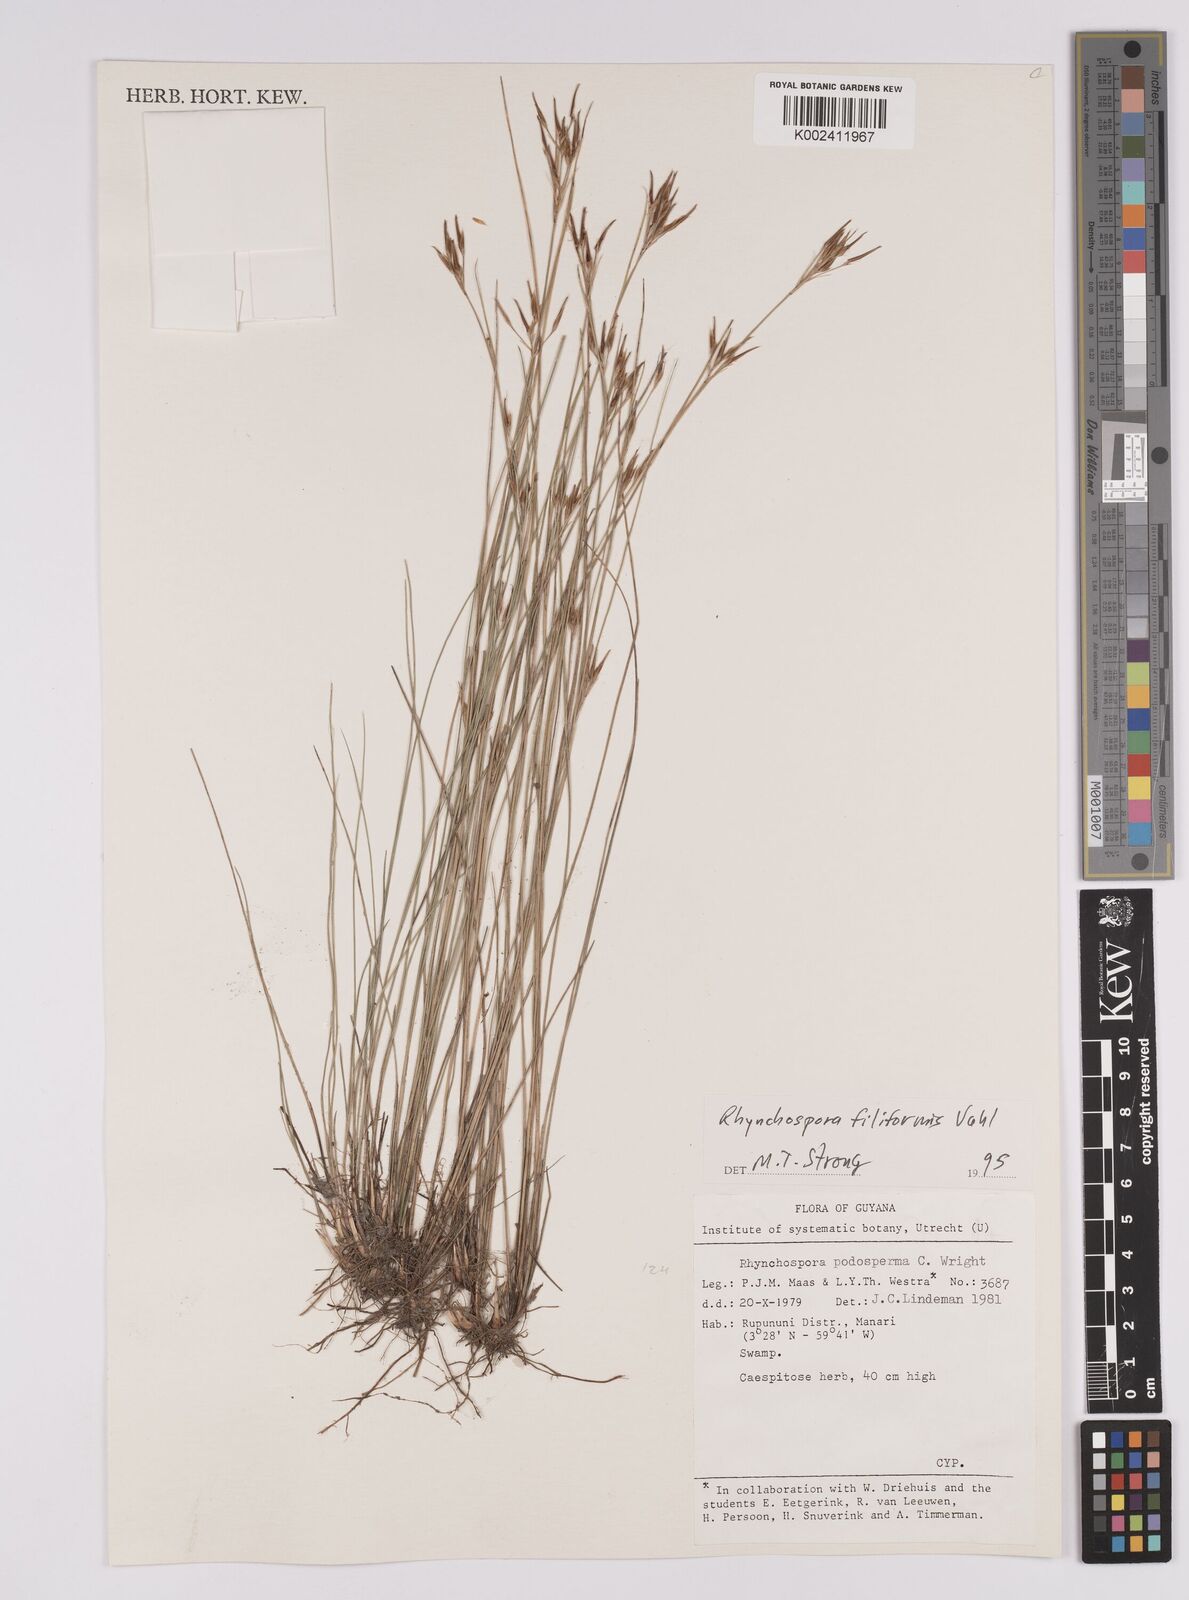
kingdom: Plantae
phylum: Tracheophyta
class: Liliopsida
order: Poales
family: Cyperaceae
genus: Rhynchospora
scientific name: Rhynchospora filiformis
